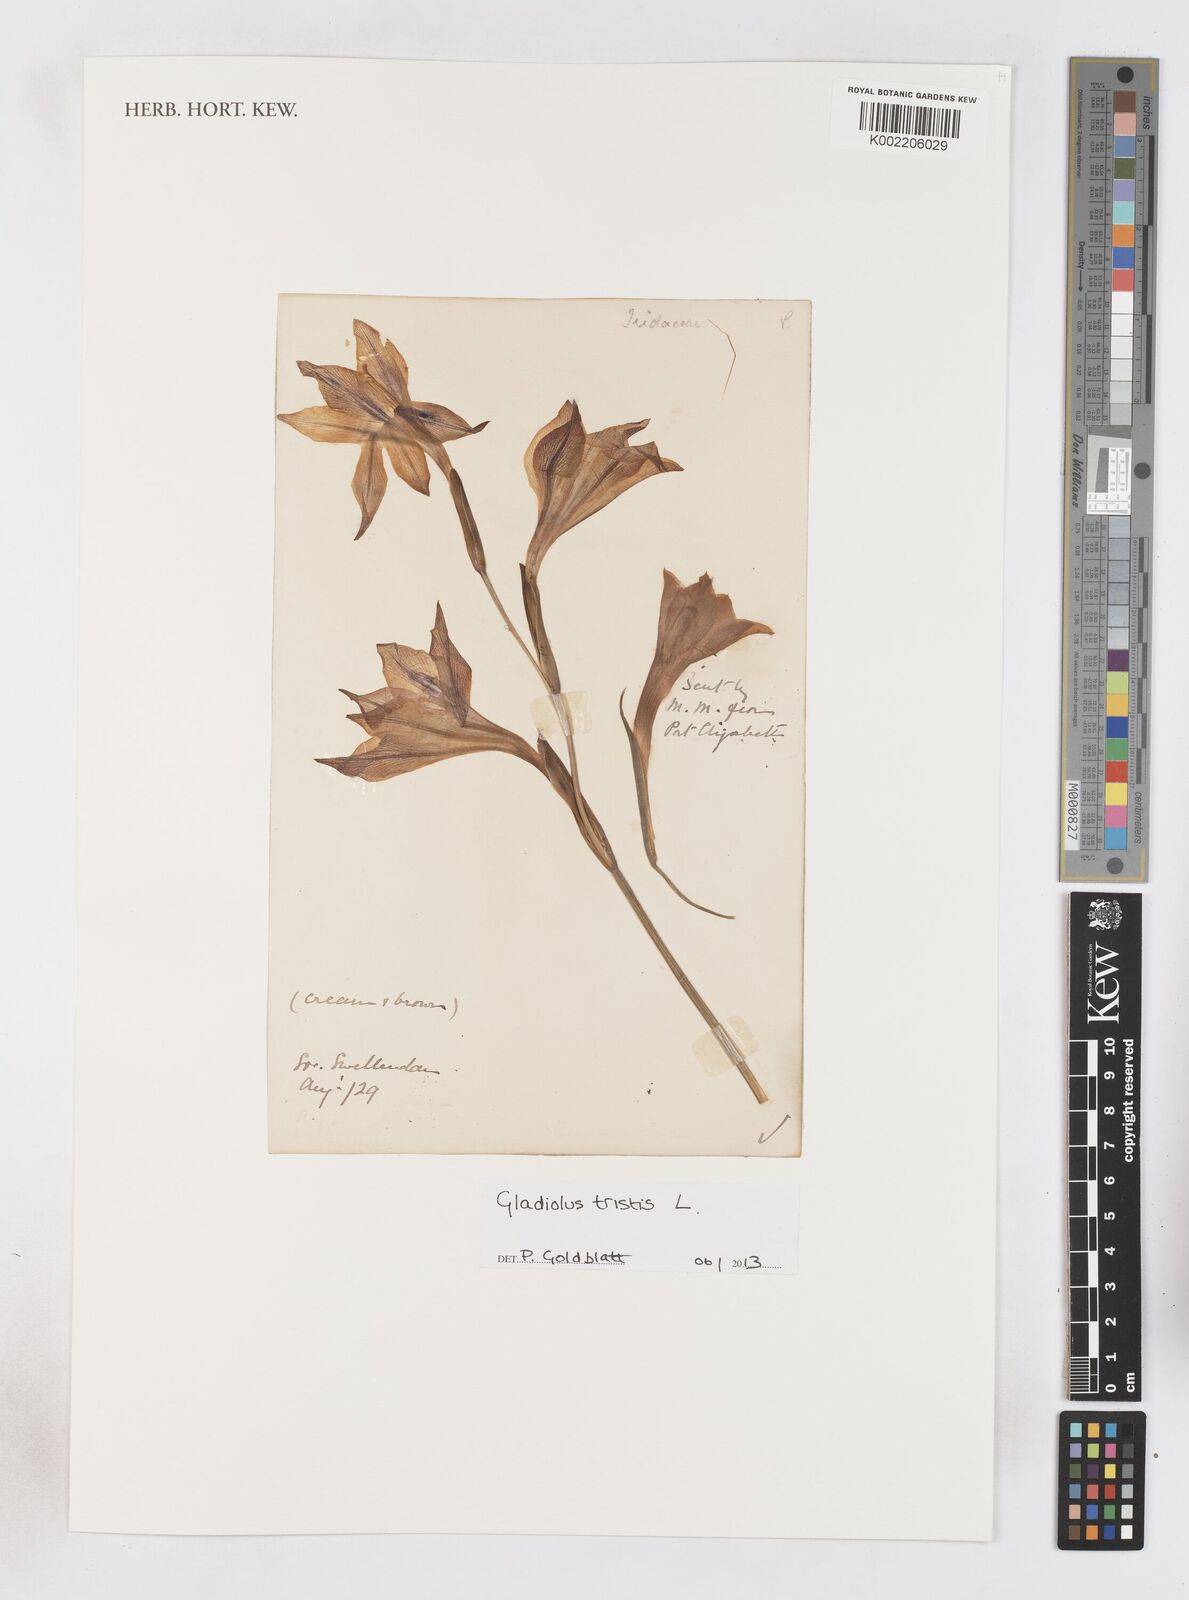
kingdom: Plantae
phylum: Tracheophyta
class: Liliopsida
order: Asparagales
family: Iridaceae
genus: Gladiolus
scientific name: Gladiolus tristis
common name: Ever-flowering gladiolus
